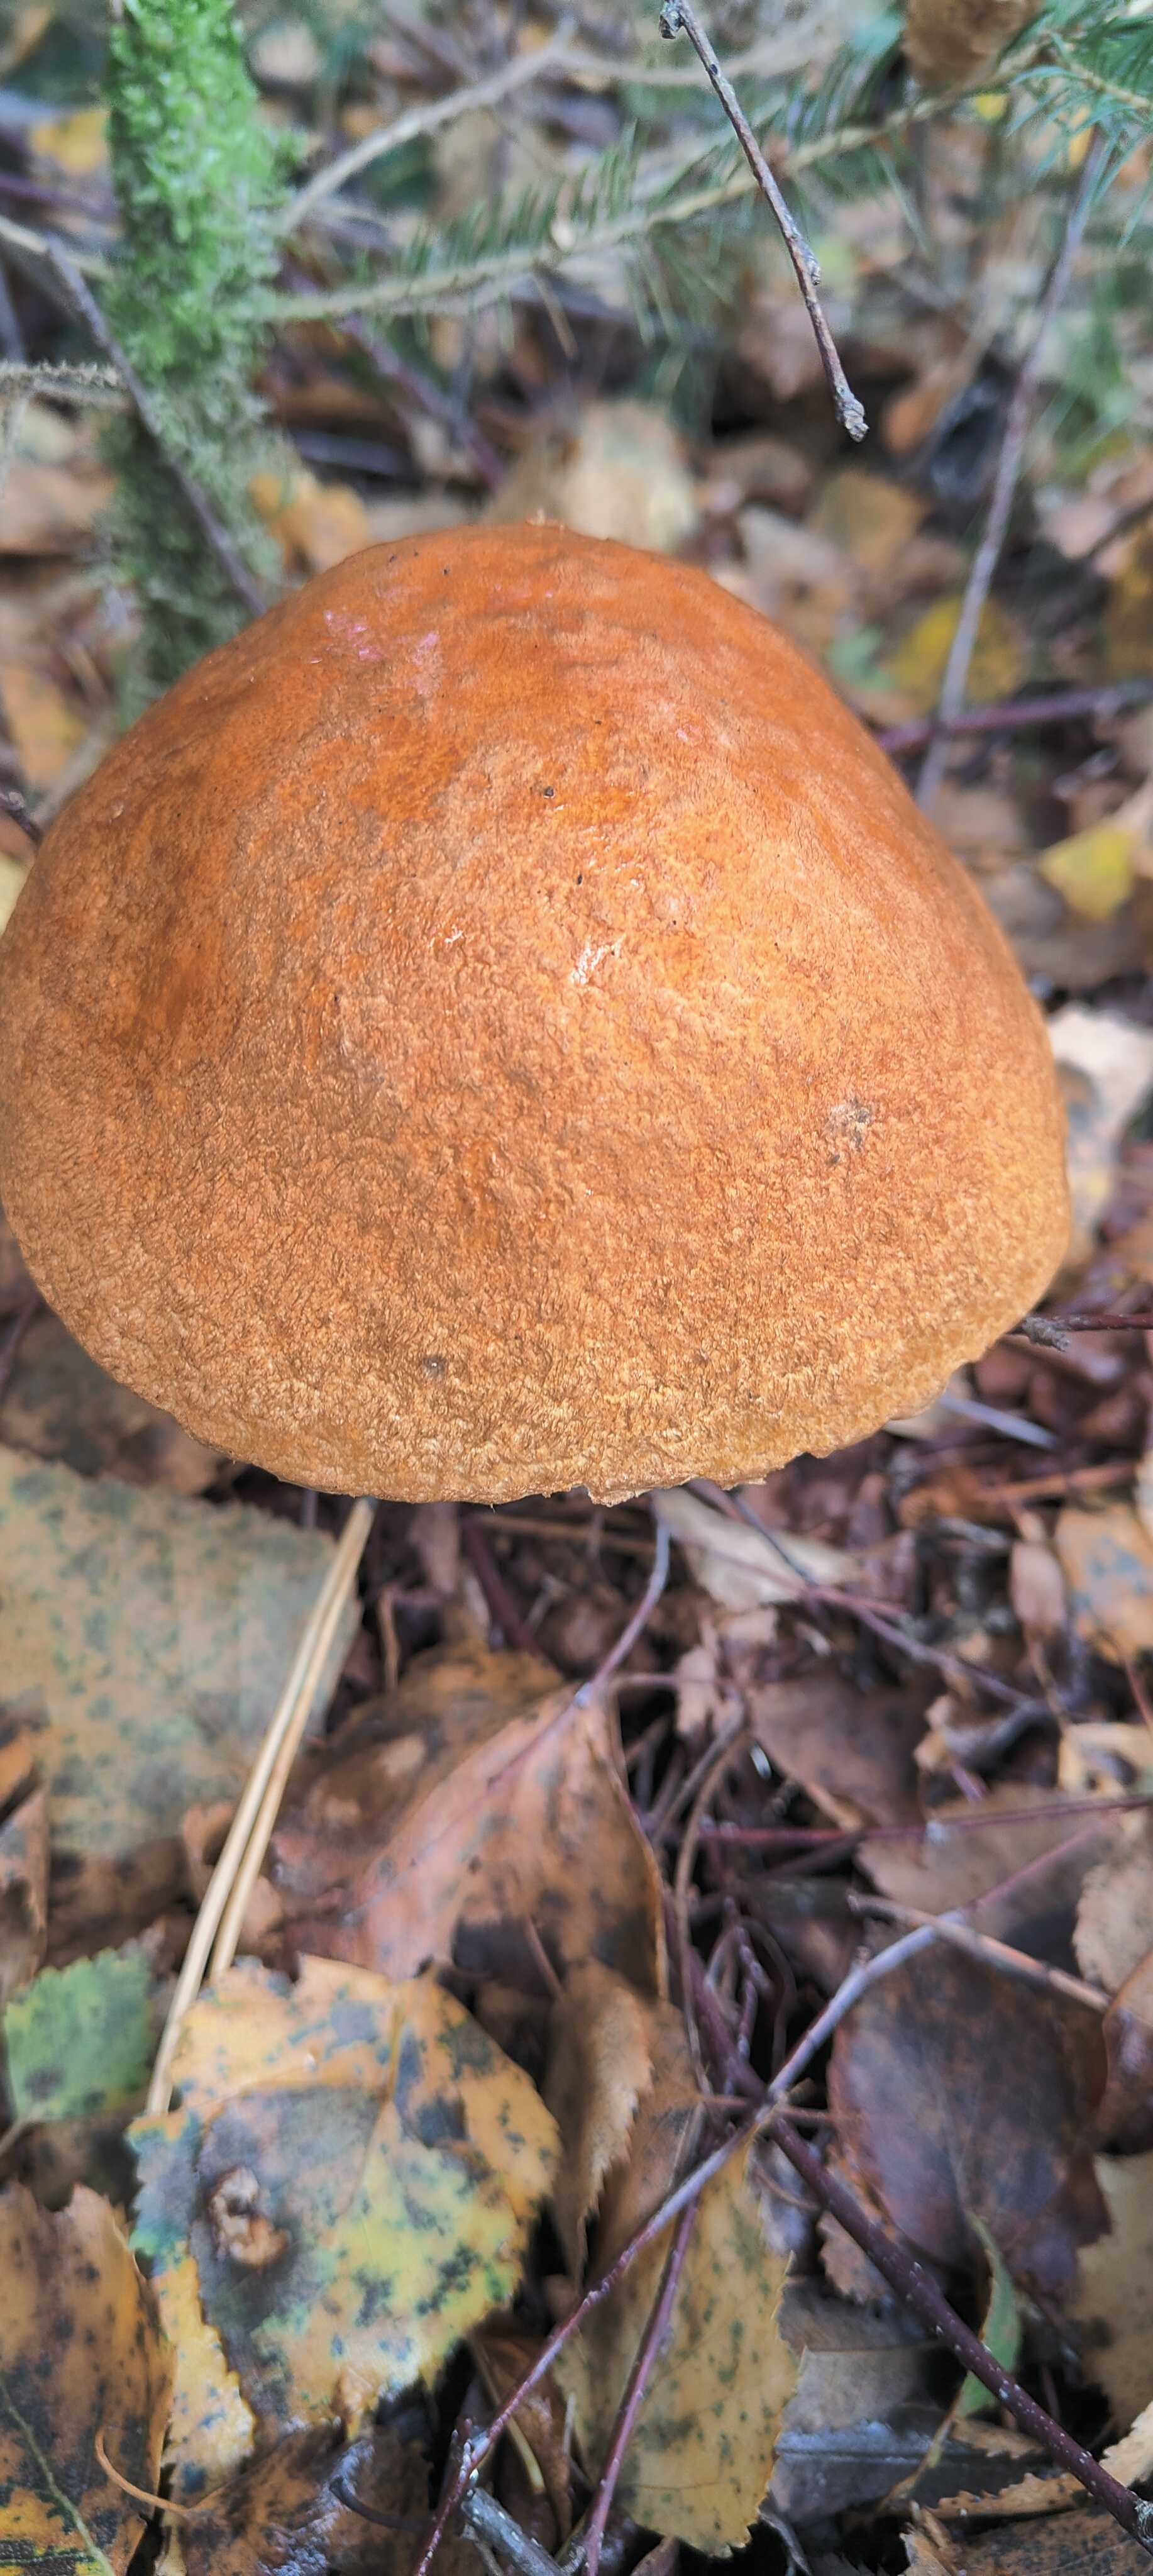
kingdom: Fungi
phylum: Basidiomycota
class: Agaricomycetes
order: Boletales
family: Boletaceae
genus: Leccinum
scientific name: Leccinum versipelle
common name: orange skælrørhat
